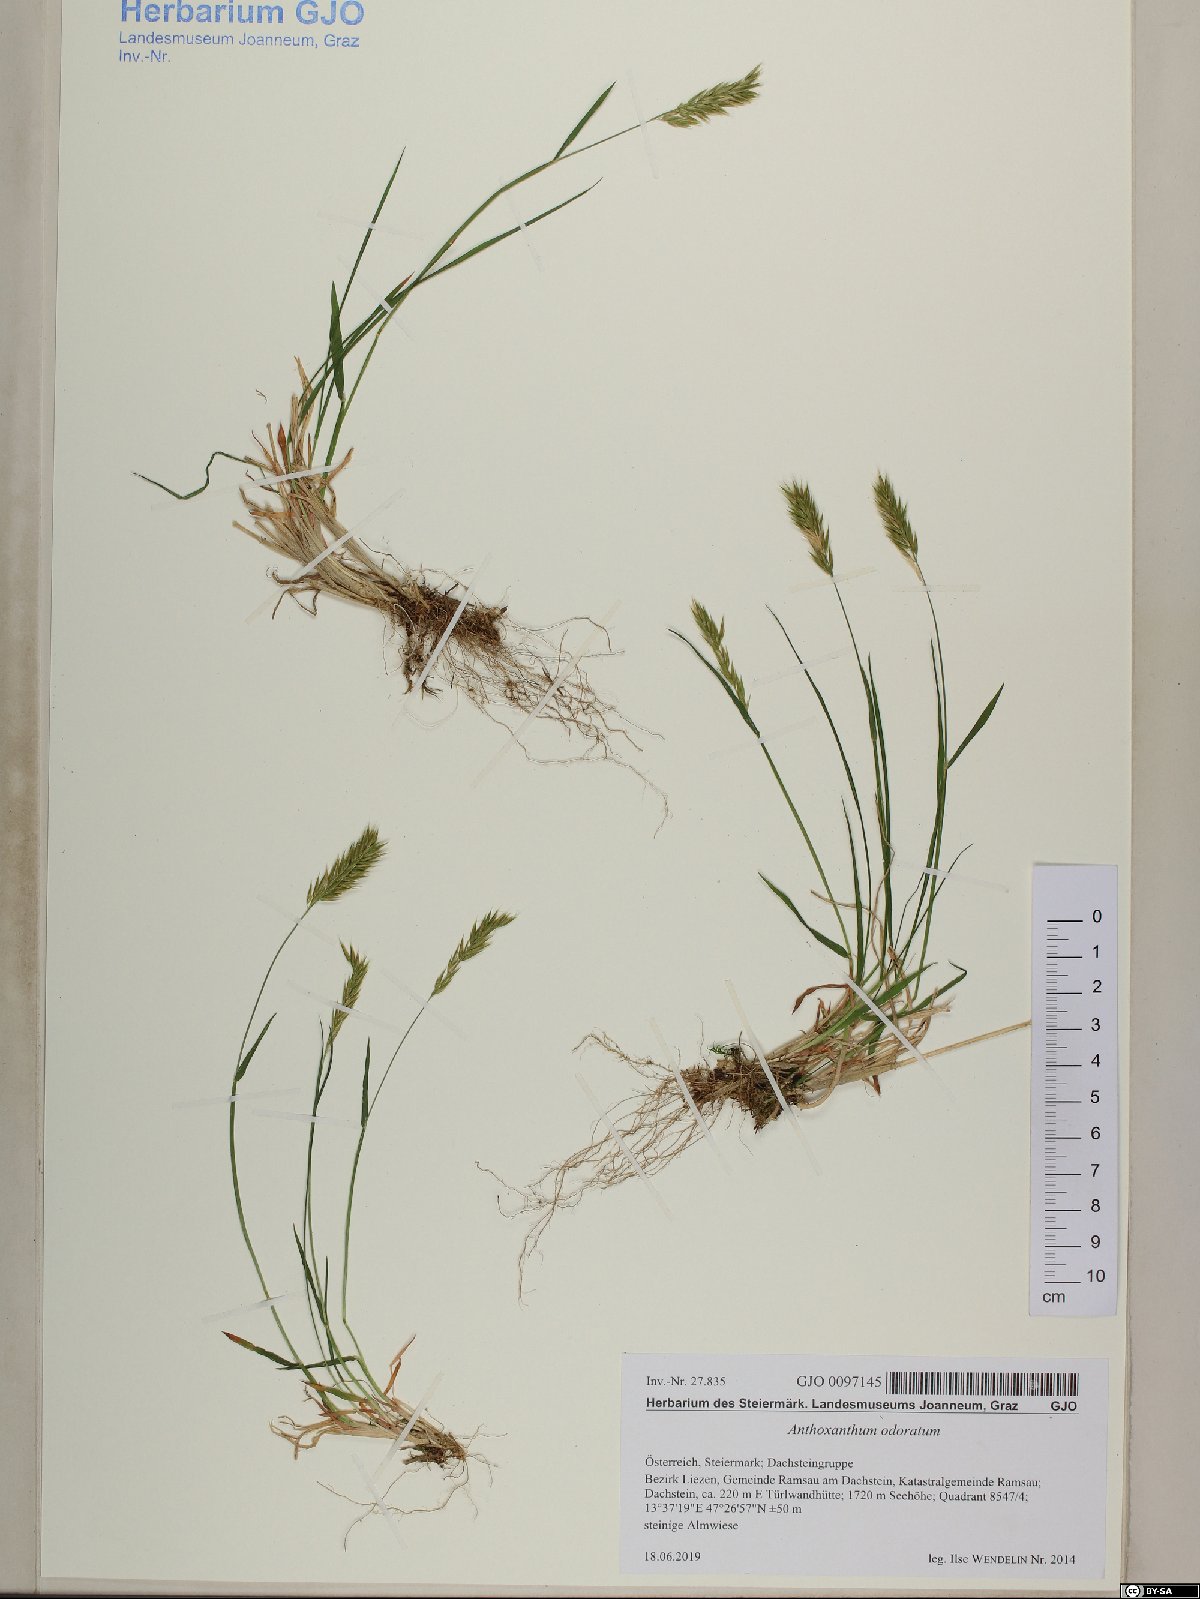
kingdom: Plantae
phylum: Tracheophyta
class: Liliopsida
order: Poales
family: Poaceae
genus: Anthoxanthum
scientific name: Anthoxanthum odoratum
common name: Sweet vernalgrass
